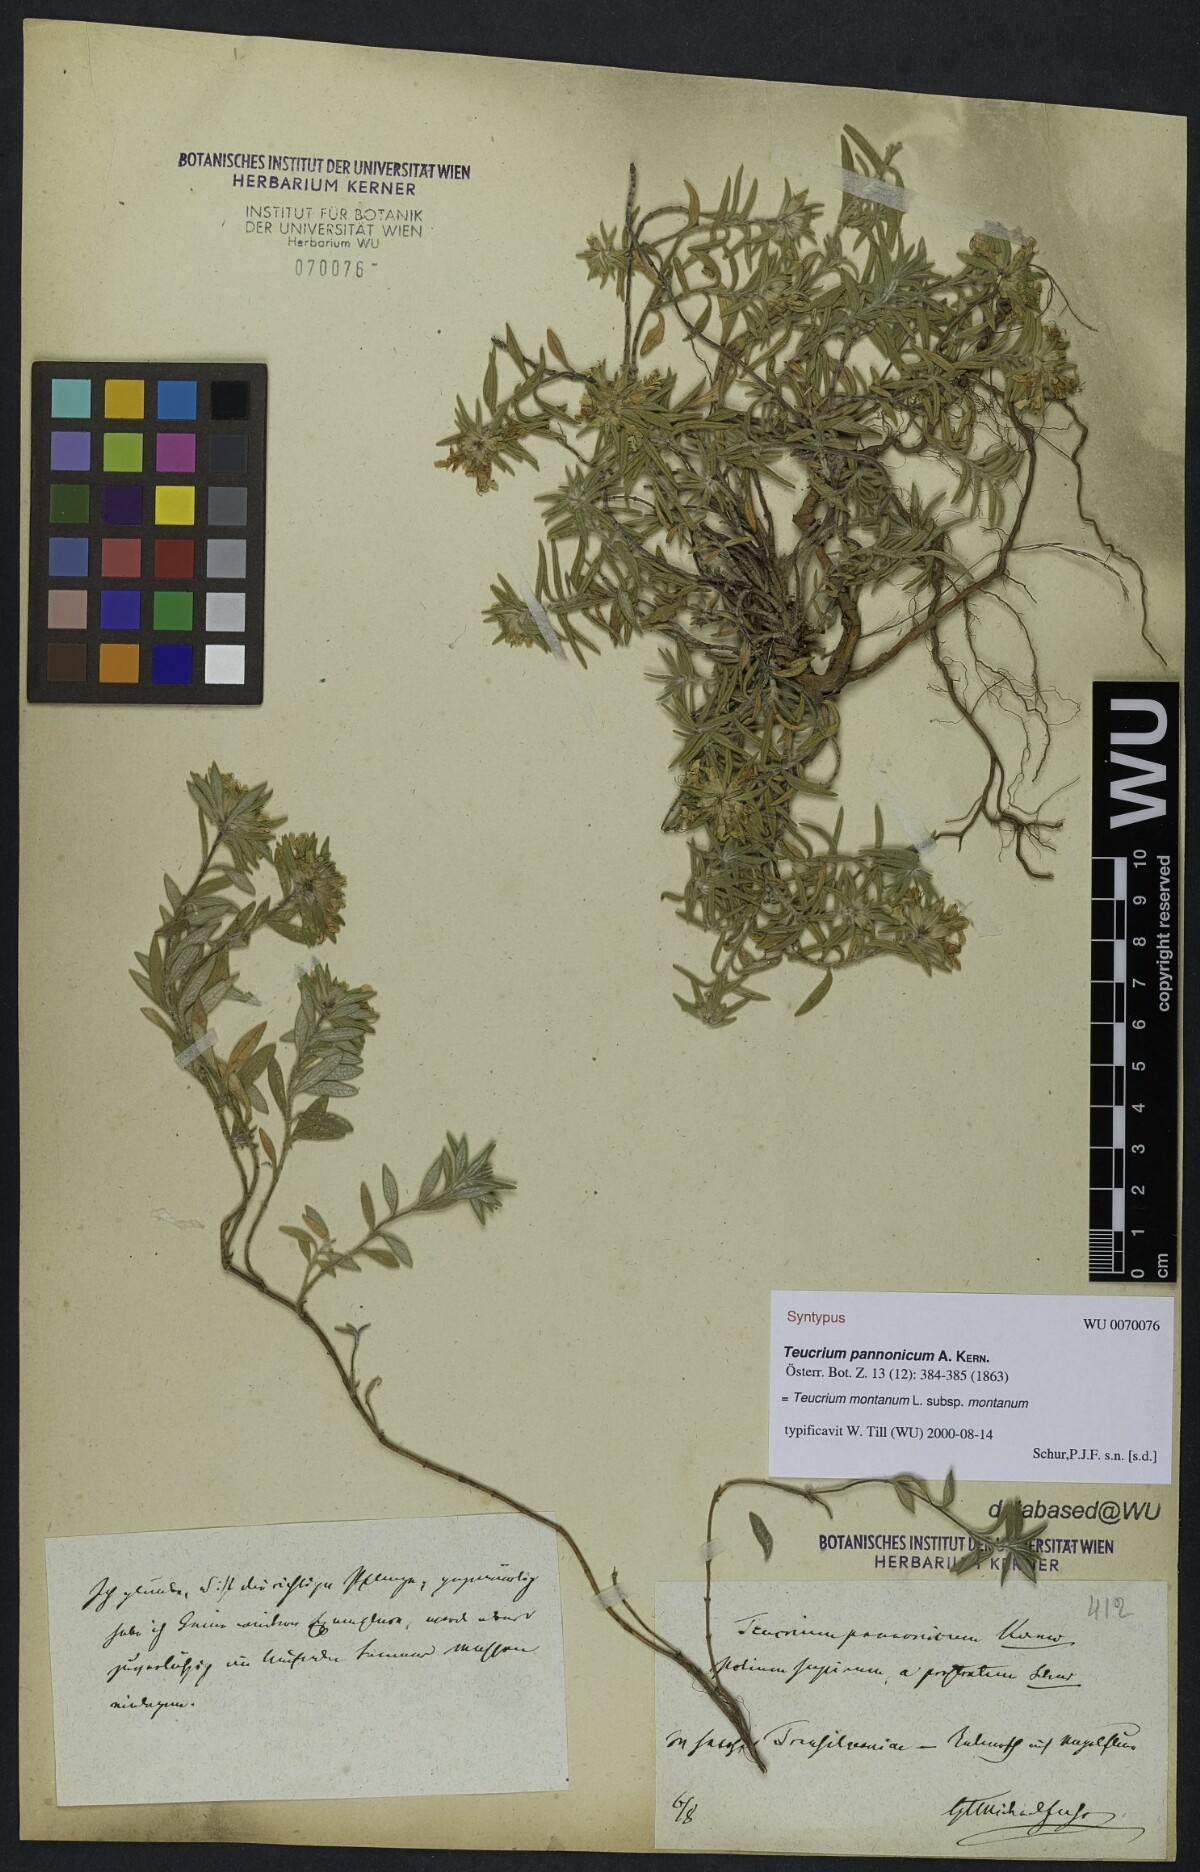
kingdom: Plantae
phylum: Tracheophyta
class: Magnoliopsida
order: Lamiales
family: Lamiaceae
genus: Teucrium
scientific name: Teucrium montanum
